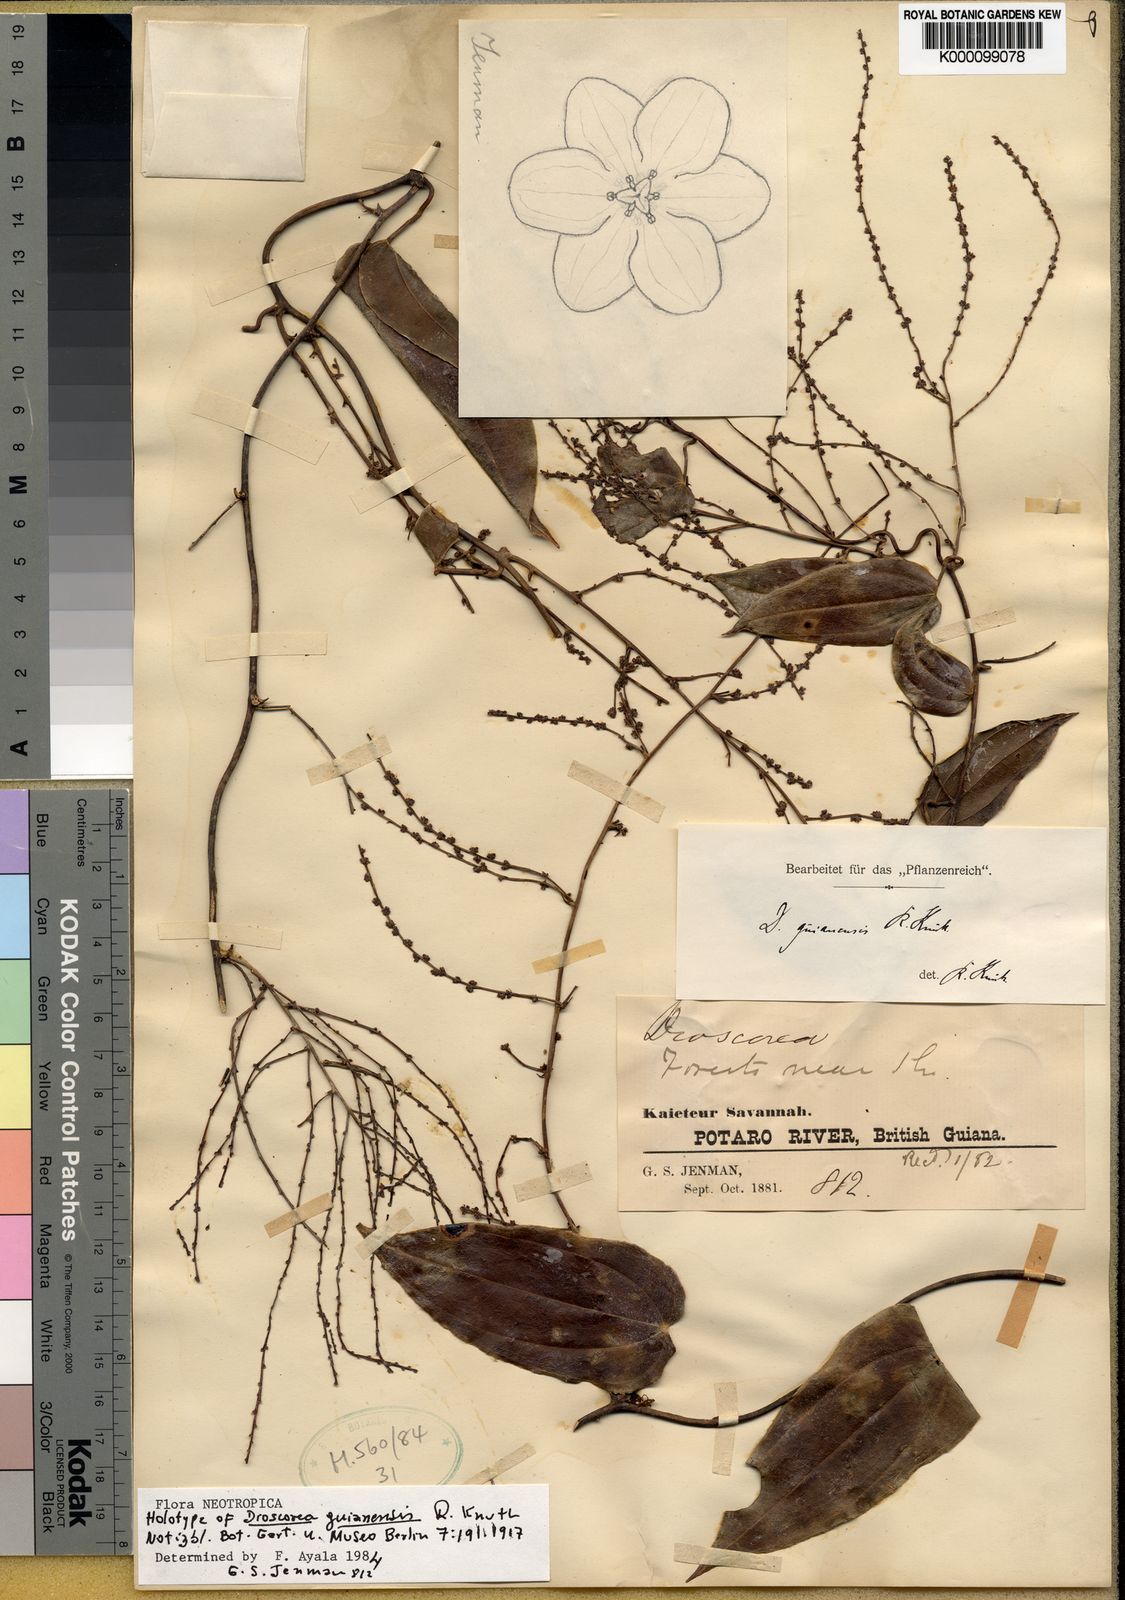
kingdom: Plantae
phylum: Tracheophyta
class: Liliopsida
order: Dioscoreales
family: Dioscoreaceae
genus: Dioscorea
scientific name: Dioscorea guianensis
